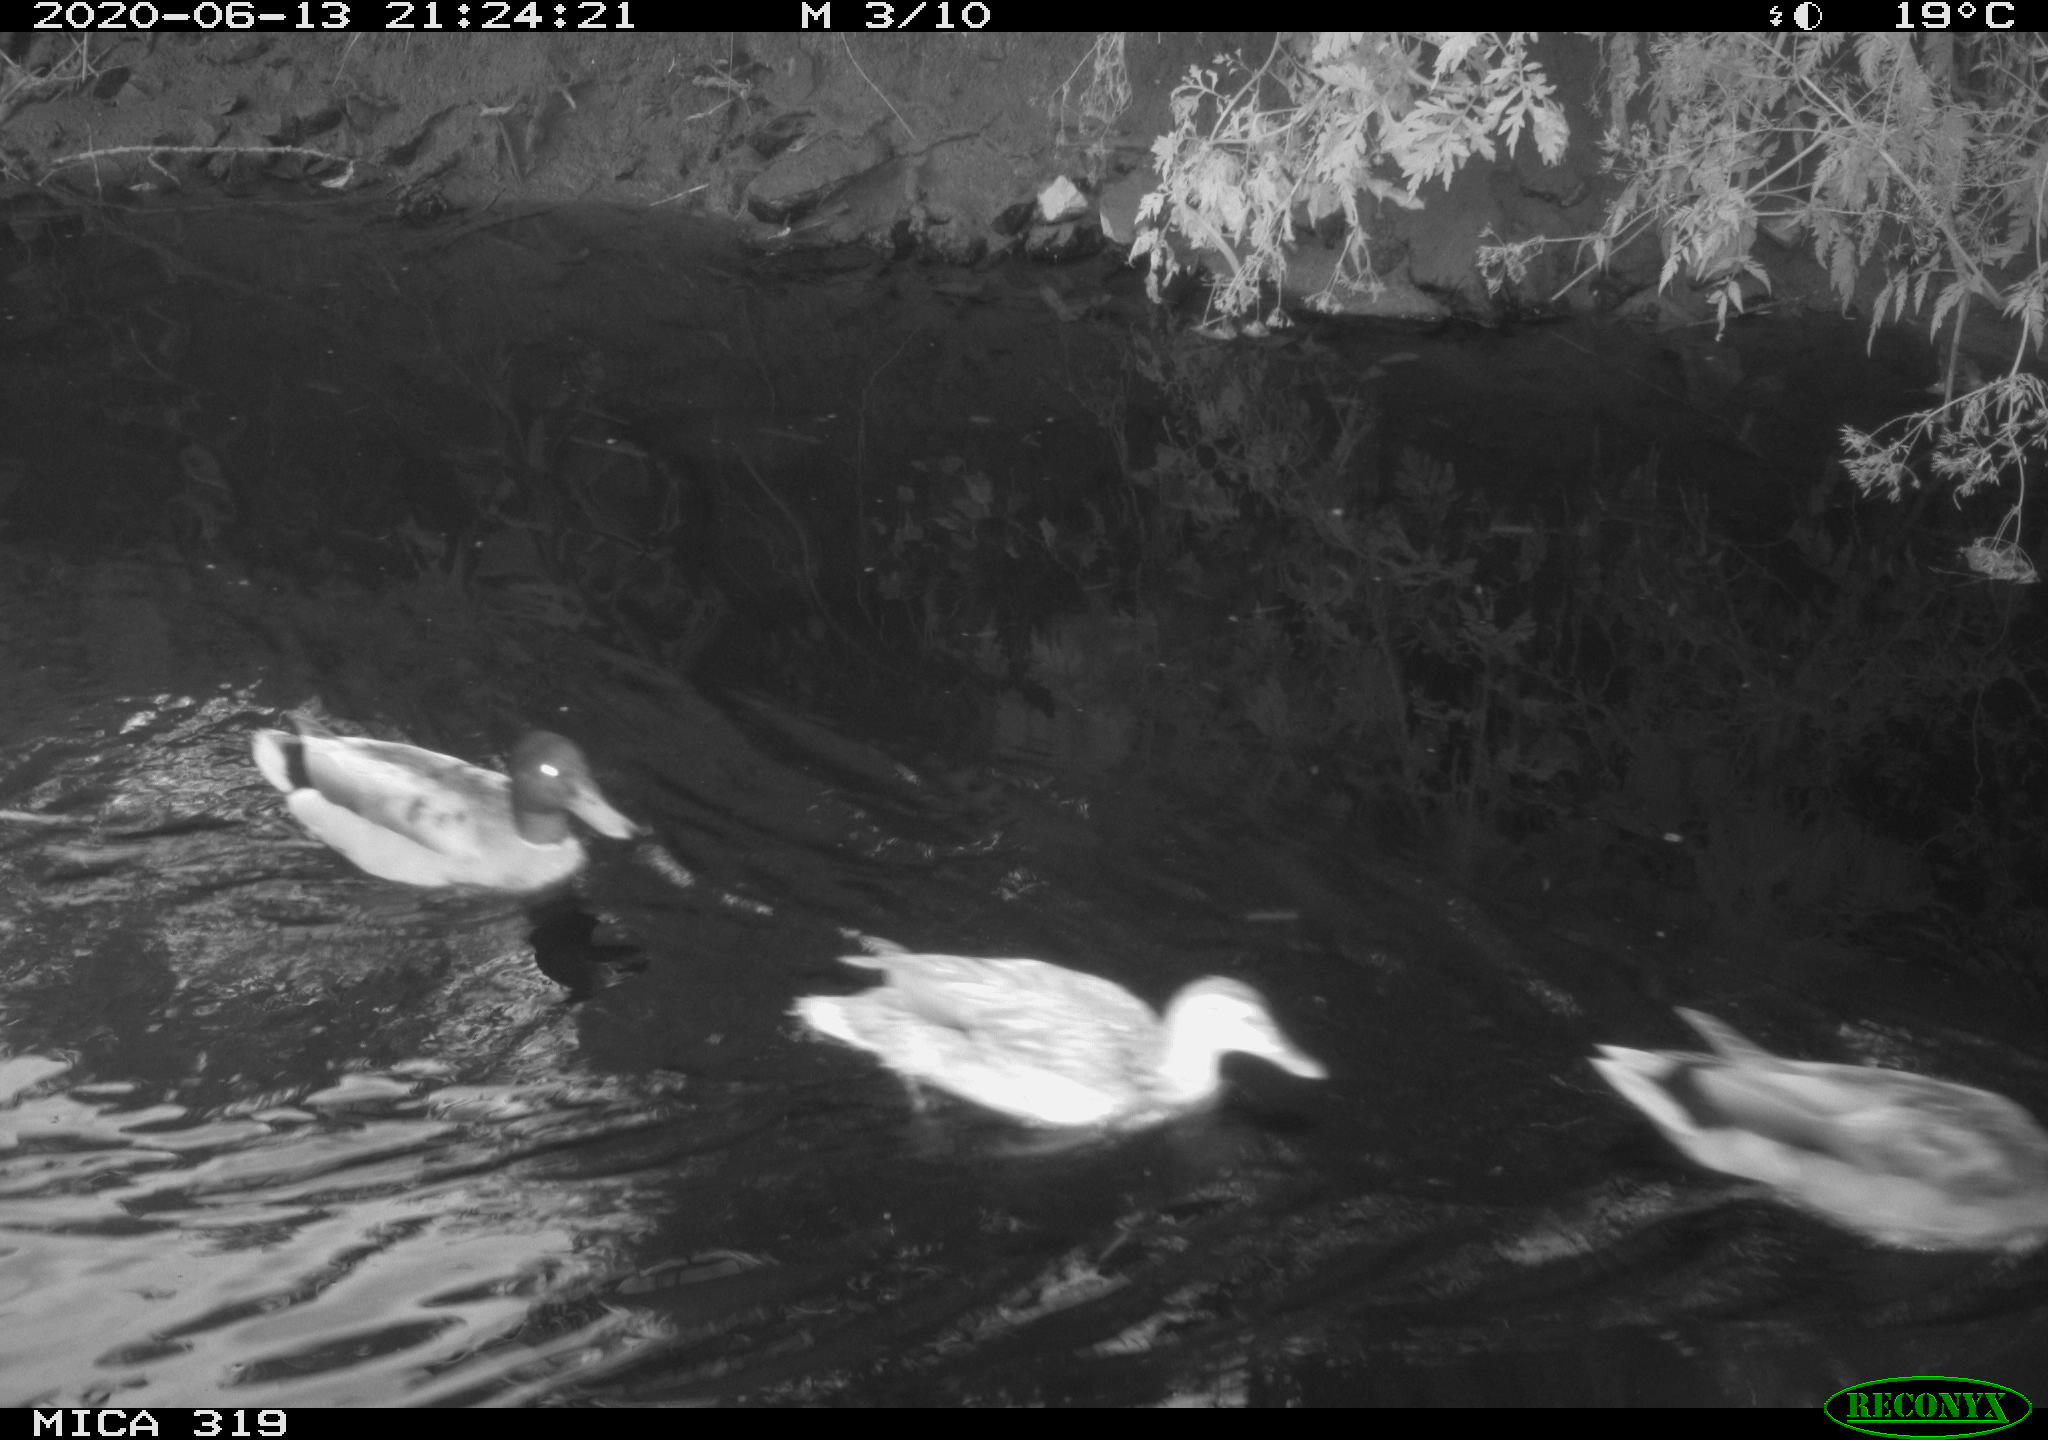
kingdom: Animalia
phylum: Chordata
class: Aves
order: Anseriformes
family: Anatidae
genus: Anas
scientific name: Anas platyrhynchos
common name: Mallard
